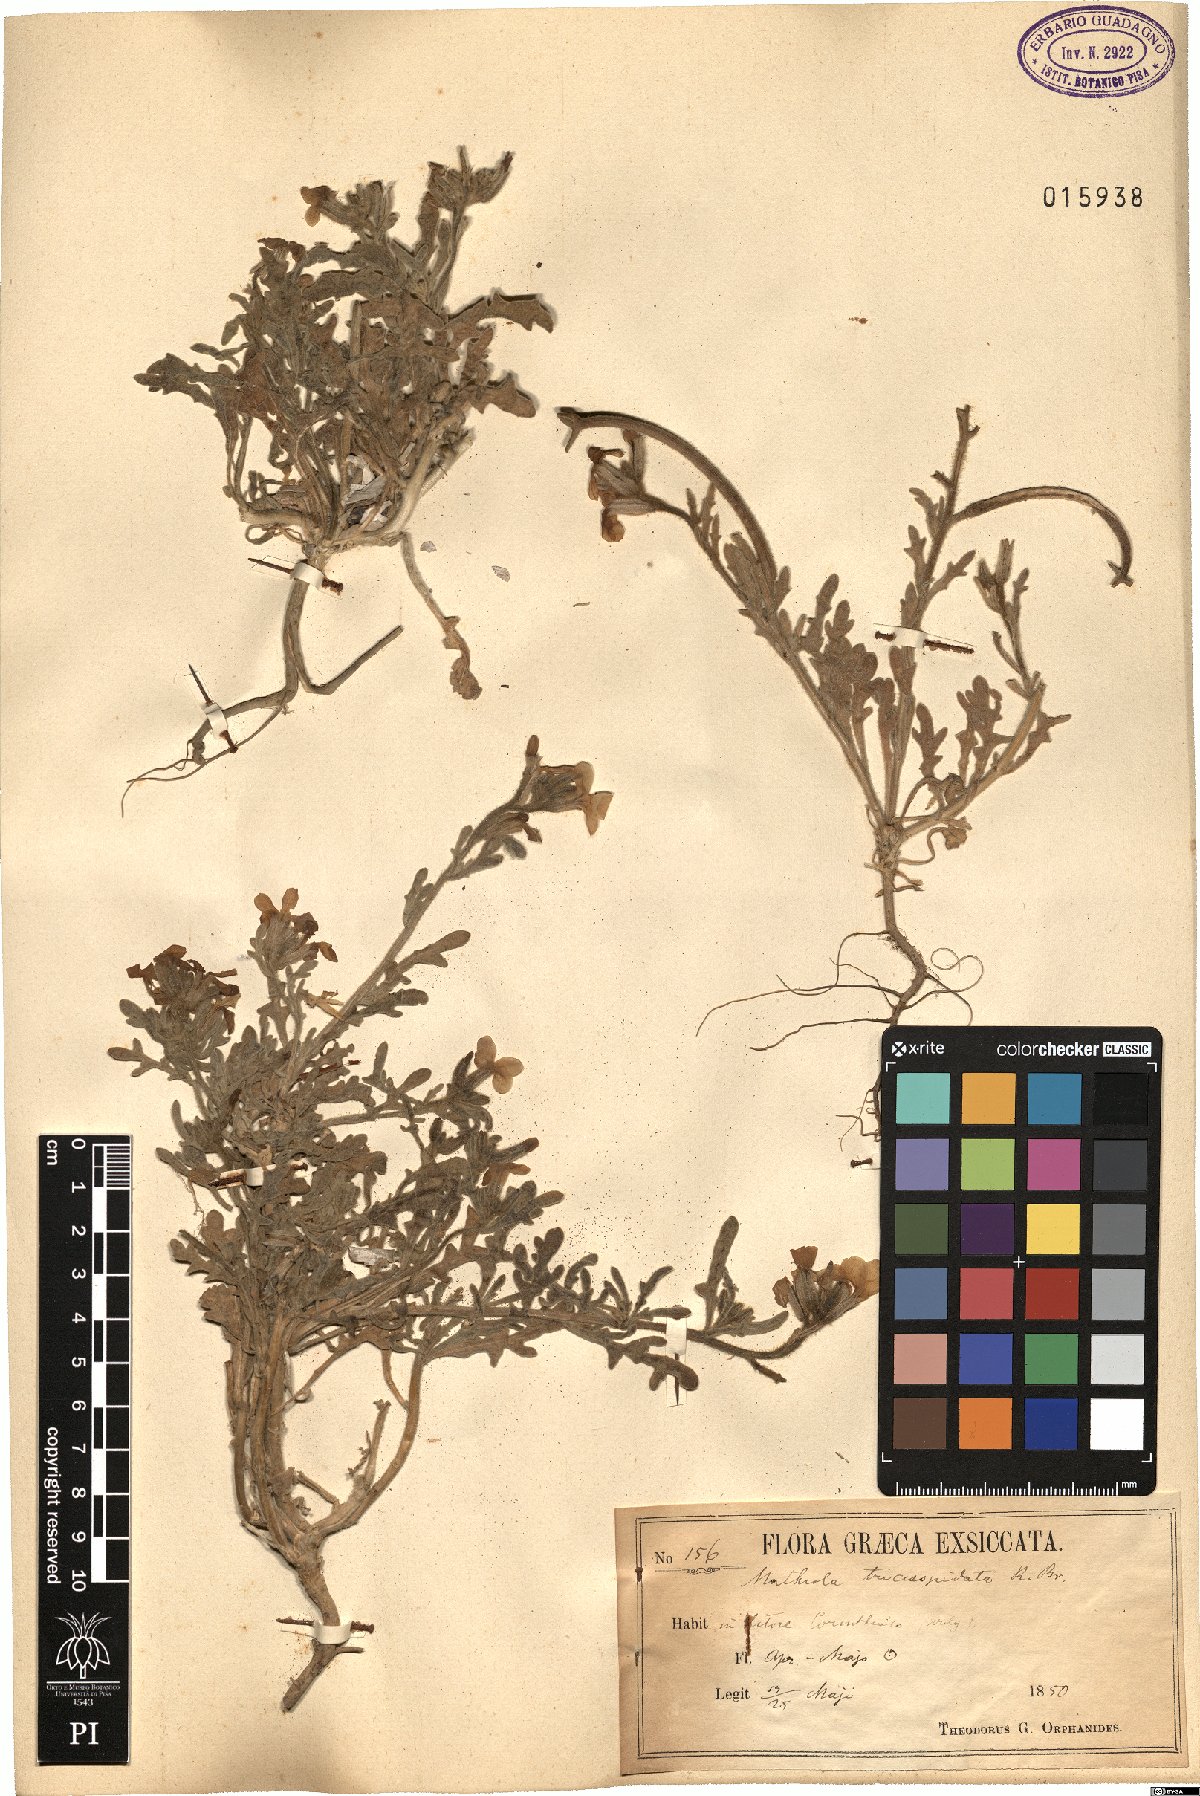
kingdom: Plantae
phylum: Tracheophyta
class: Magnoliopsida
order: Brassicales
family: Brassicaceae
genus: Matthiola
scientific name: Matthiola tricuspidata
